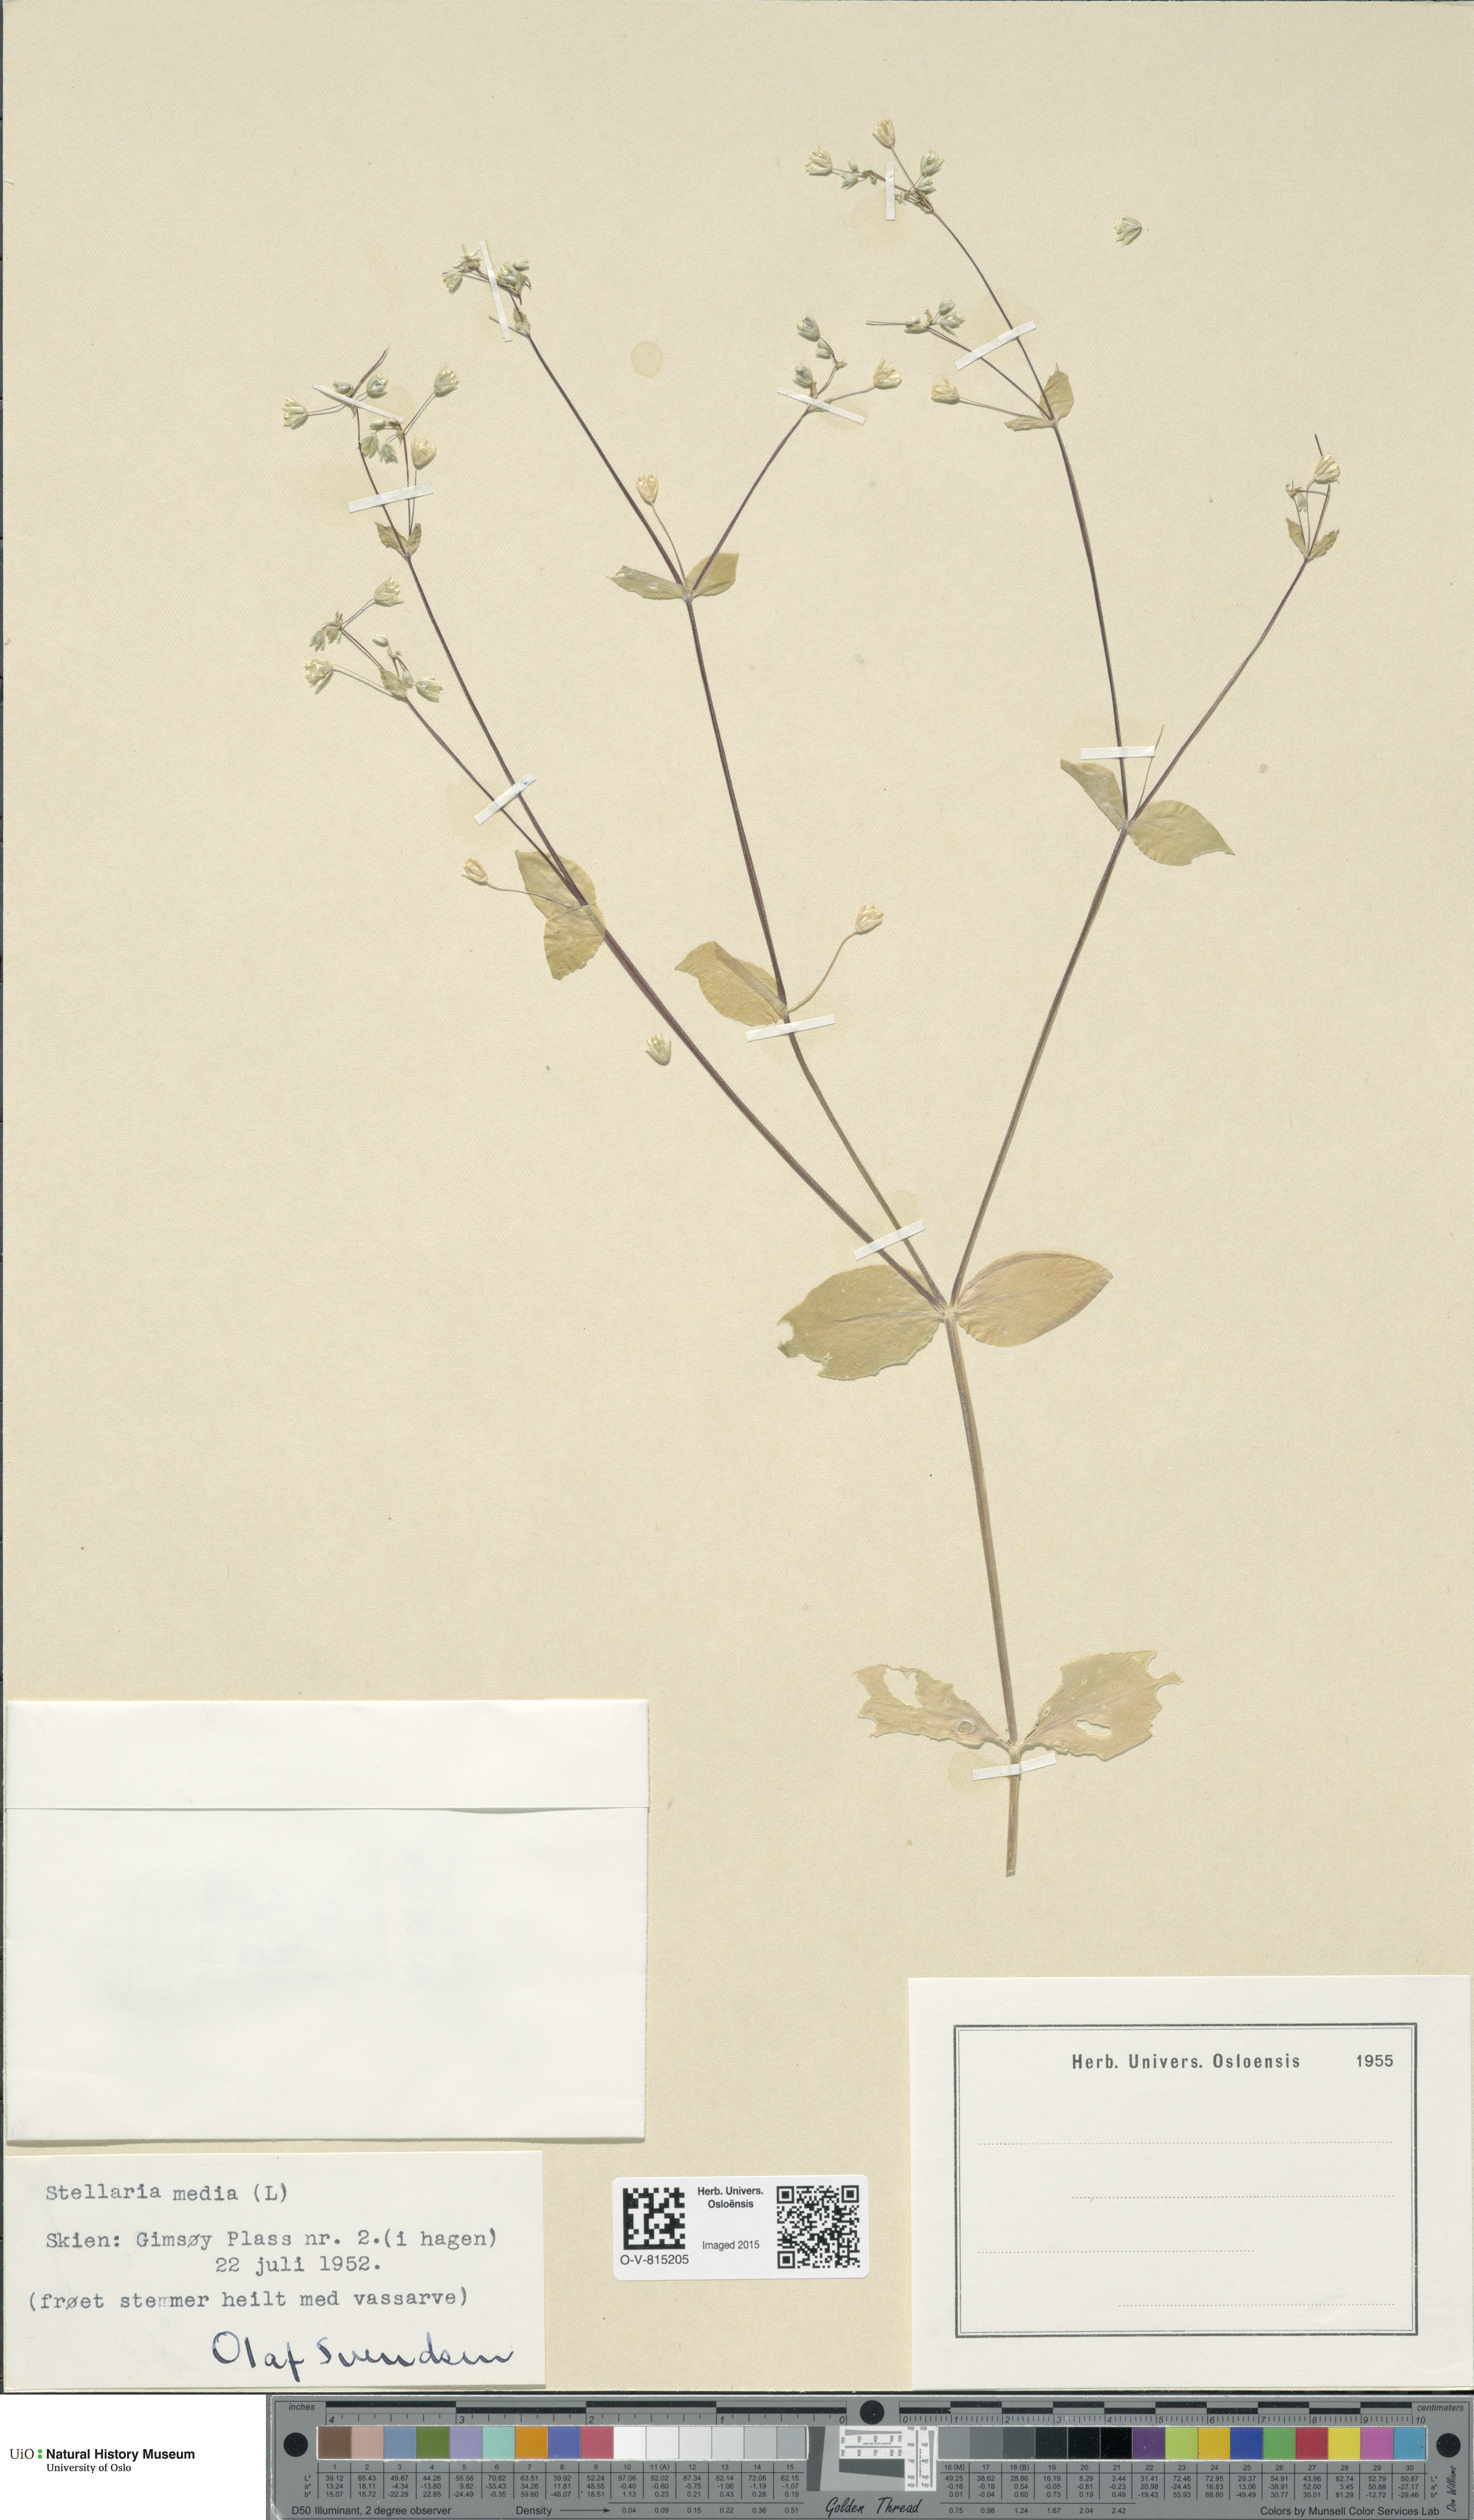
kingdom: Plantae
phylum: Tracheophyta
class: Magnoliopsida
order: Caryophyllales
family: Caryophyllaceae
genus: Stellaria
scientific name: Stellaria media
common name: Common chickweed
